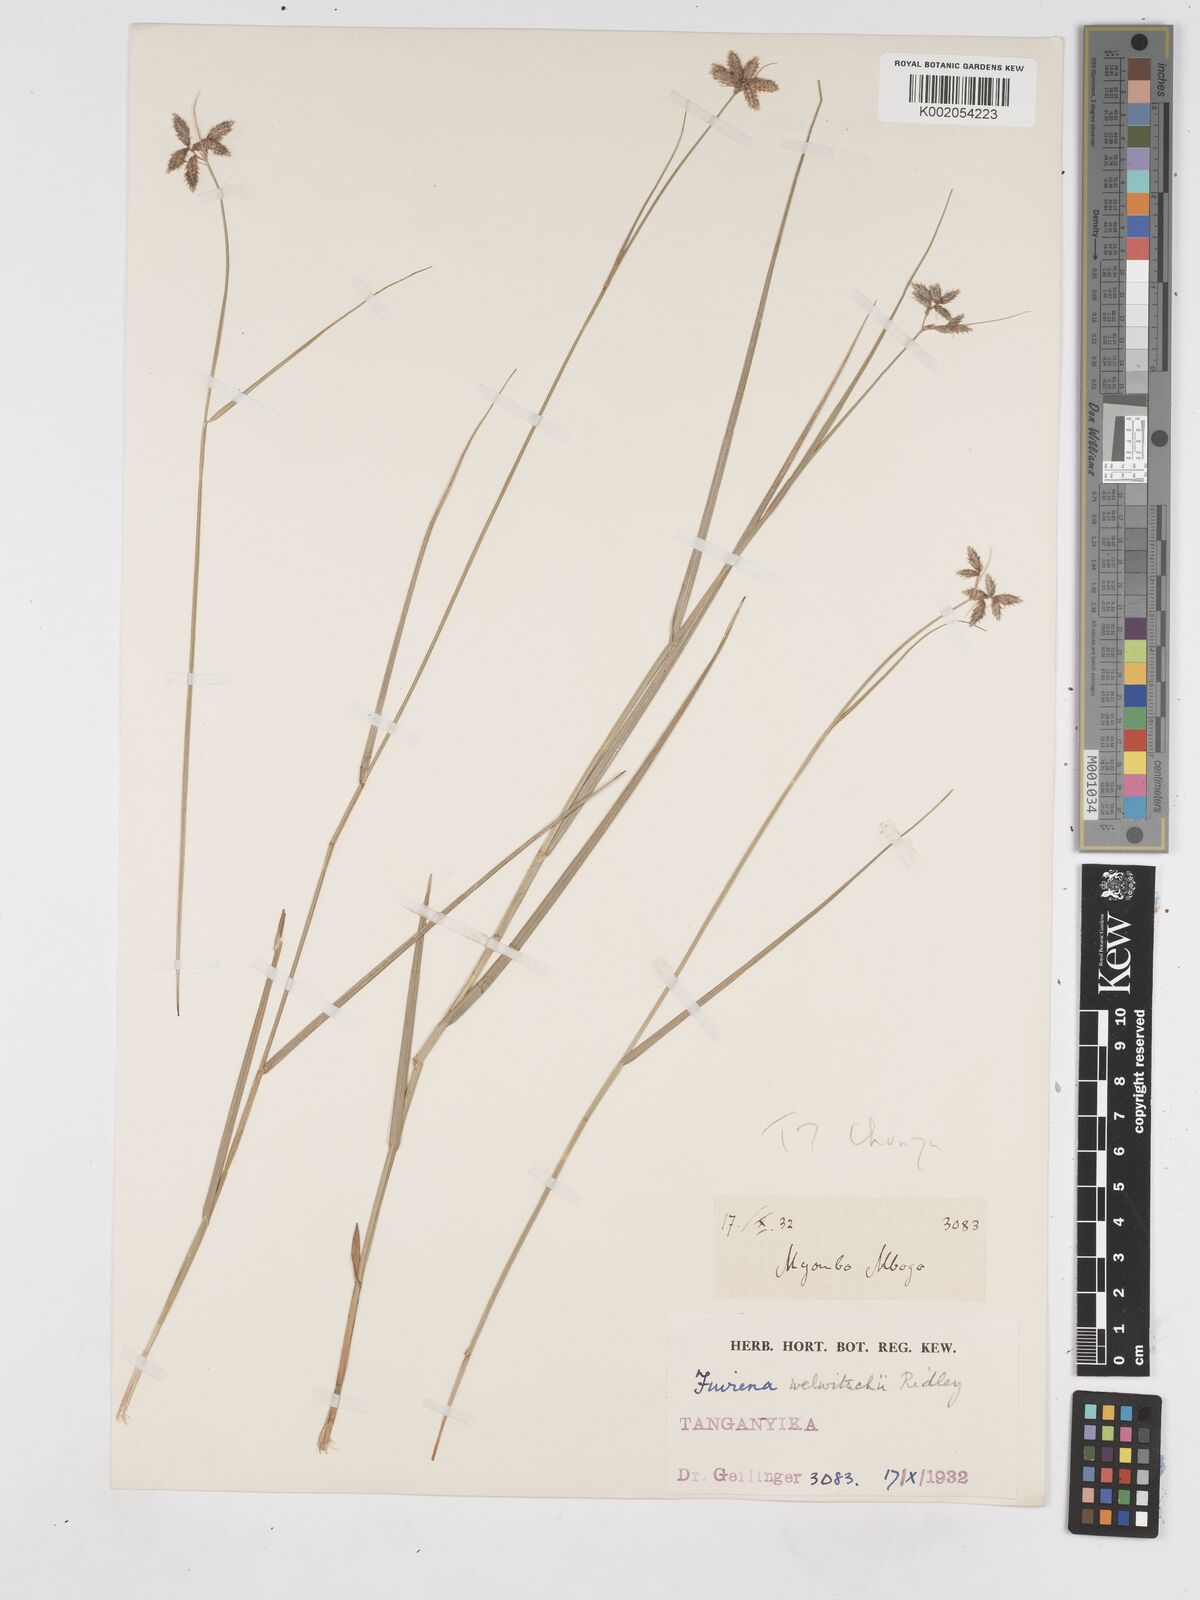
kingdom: Plantae
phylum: Tracheophyta
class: Liliopsida
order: Poales
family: Cyperaceae
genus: Fuirena
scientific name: Fuirena welwitschii
